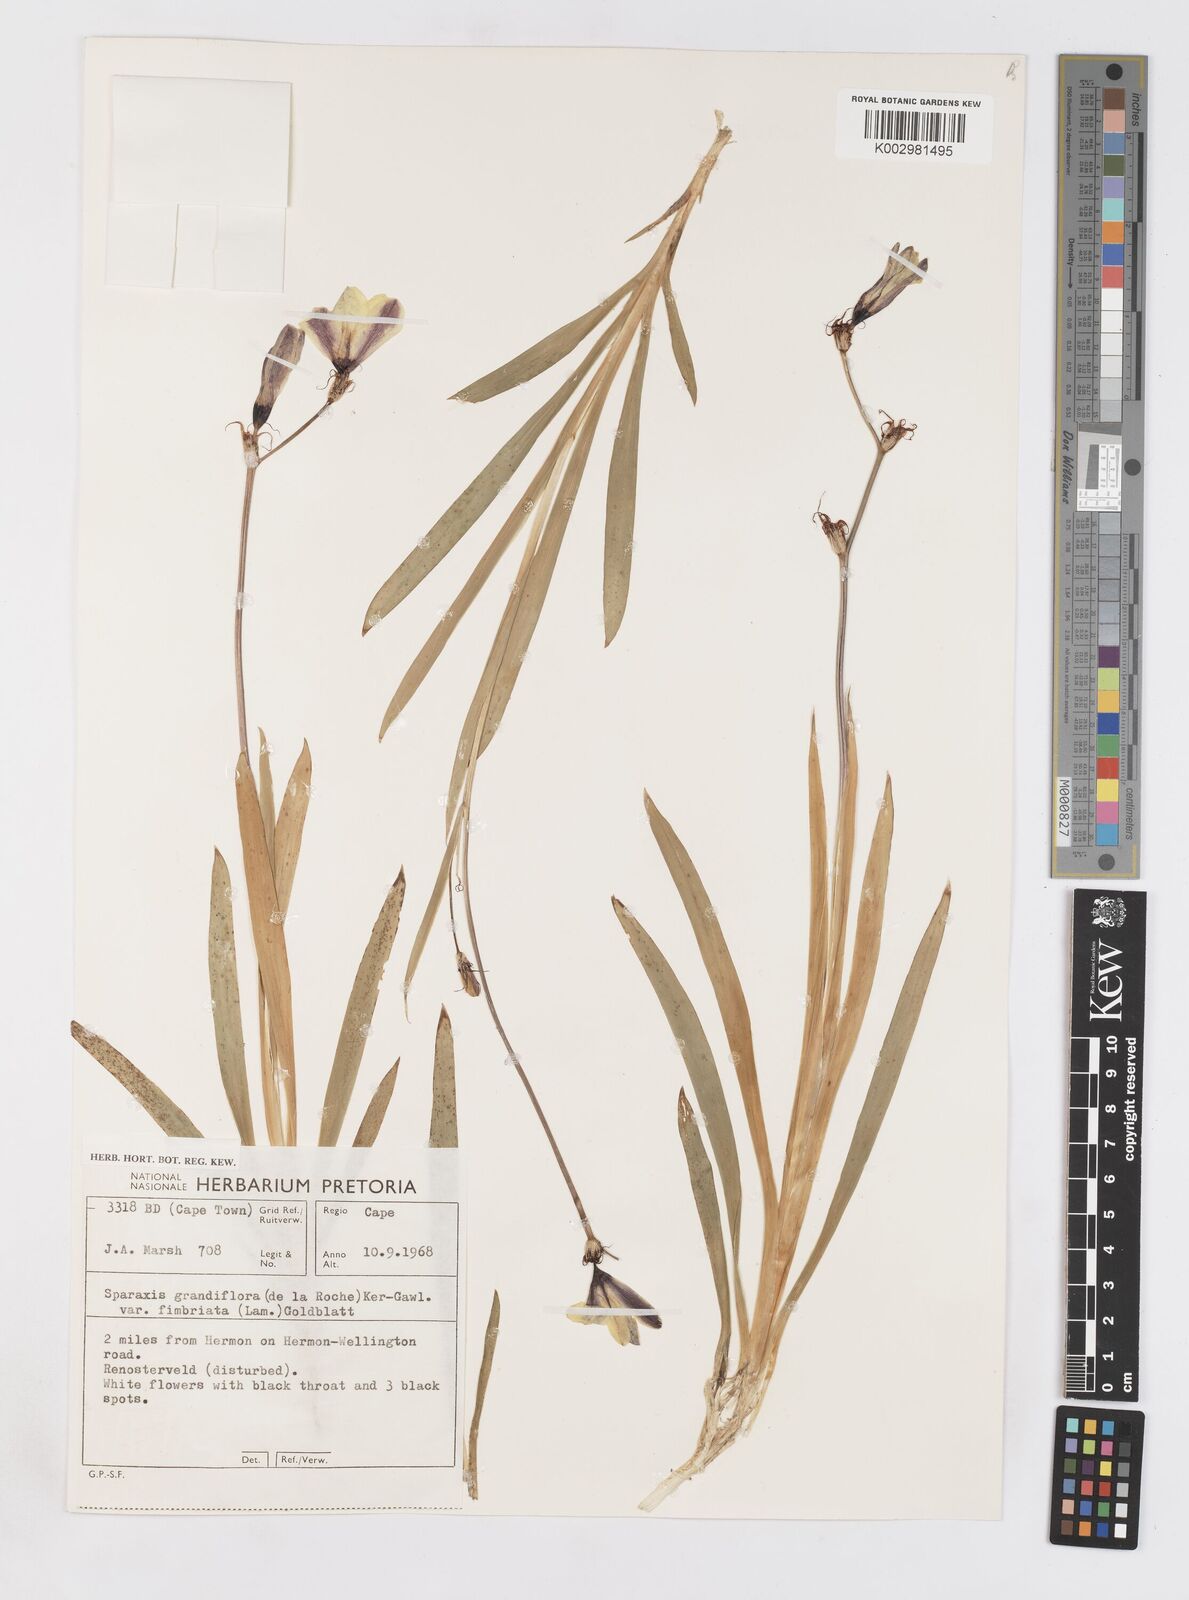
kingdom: Plantae
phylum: Tracheophyta
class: Liliopsida
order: Asparagales
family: Iridaceae
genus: Sparaxis
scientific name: Sparaxis grandiflora
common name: Plain harlequin-flower
